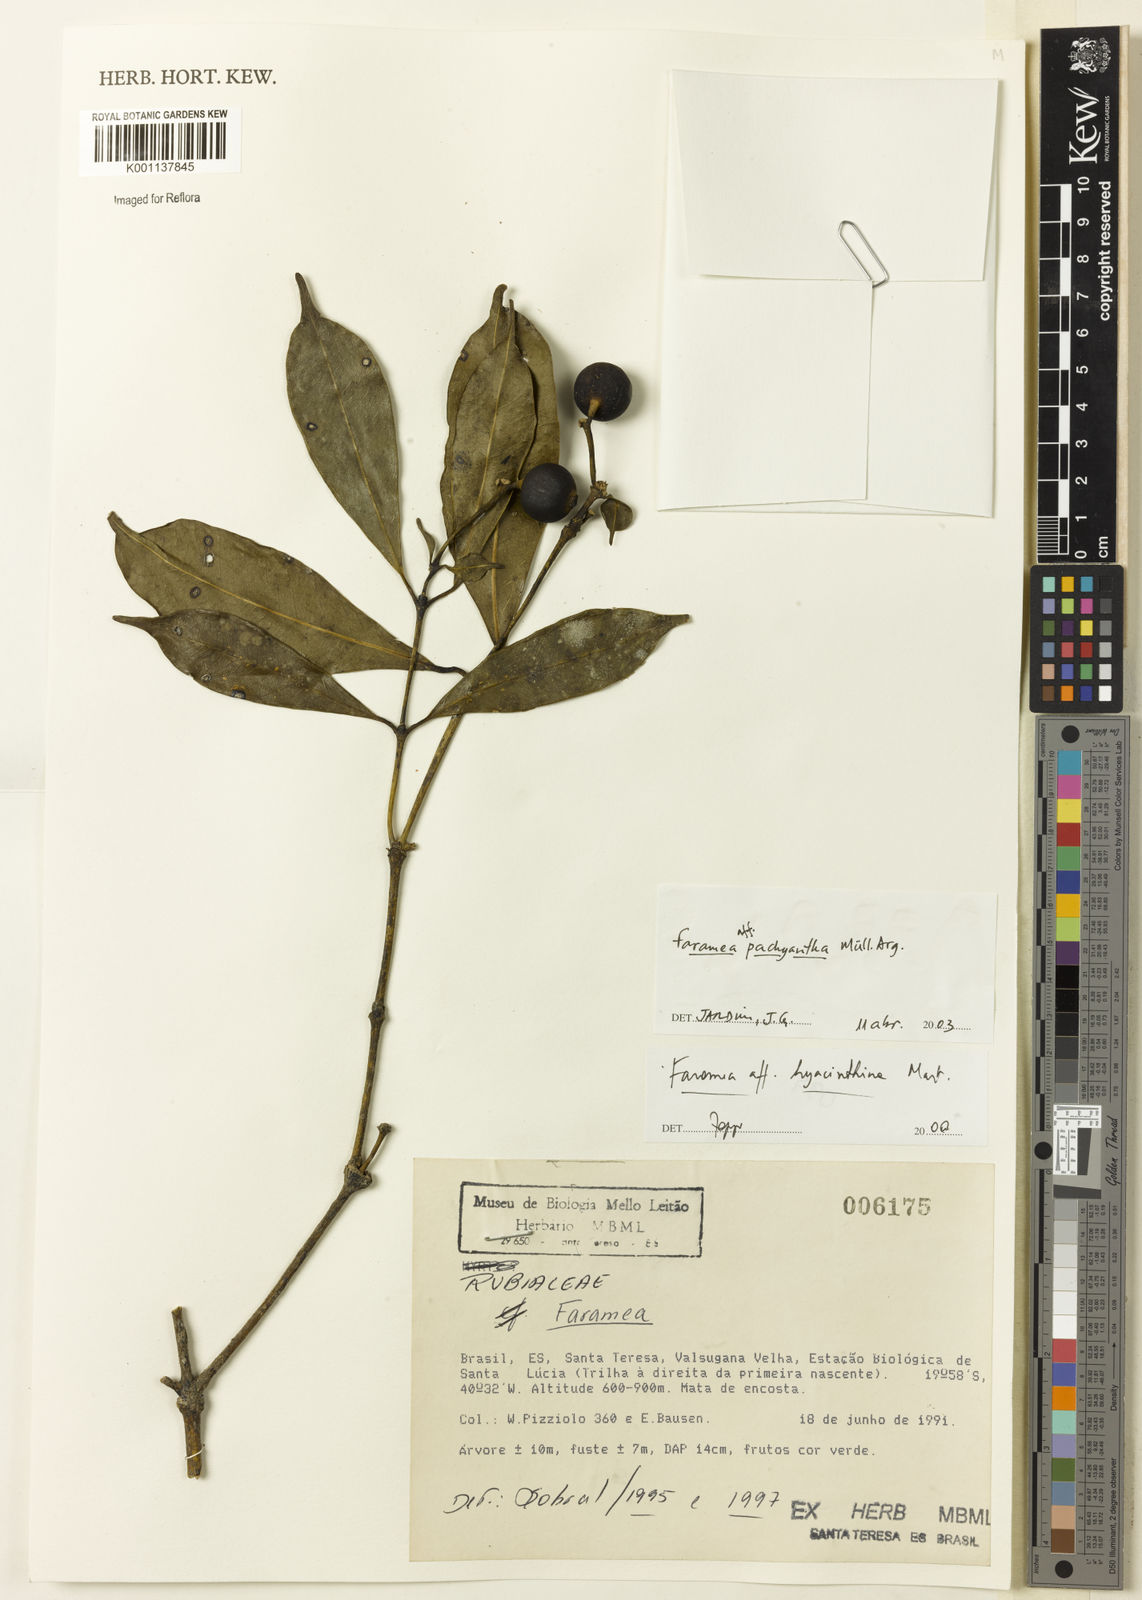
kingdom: Plantae
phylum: Tracheophyta
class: Magnoliopsida
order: Gentianales
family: Rubiaceae
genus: Faramea
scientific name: Faramea
